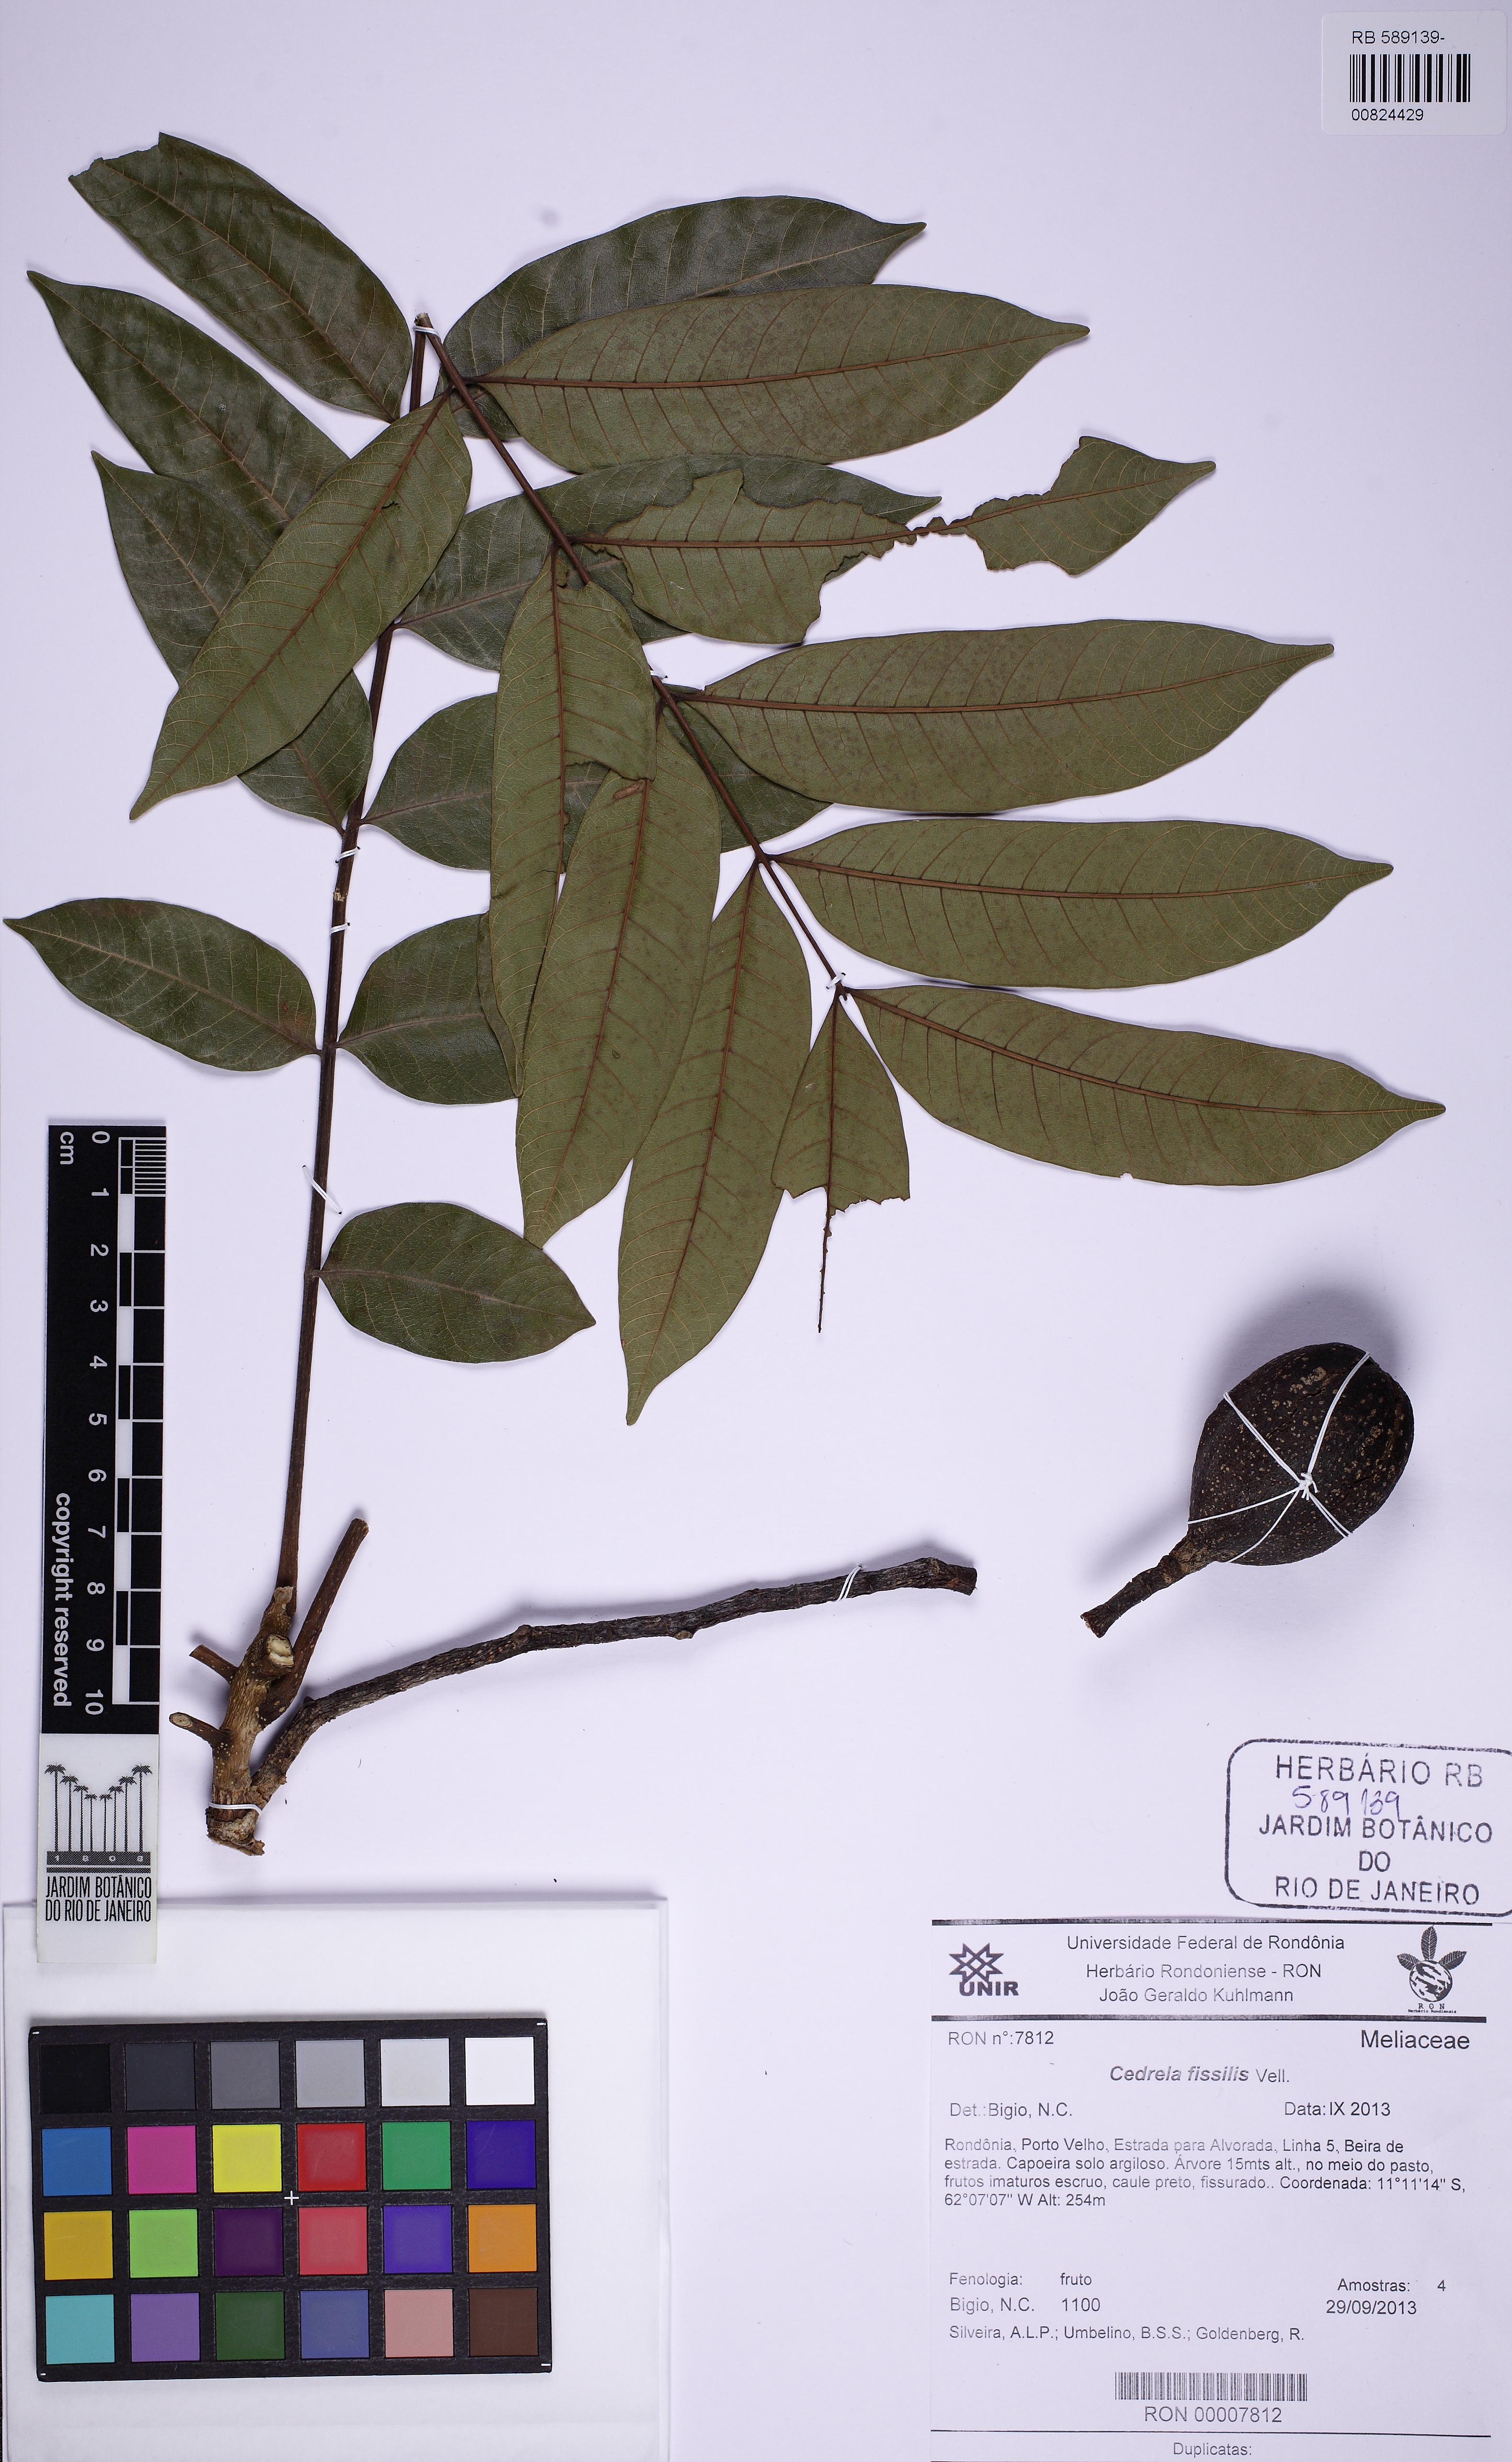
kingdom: Plantae
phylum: Tracheophyta
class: Magnoliopsida
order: Sapindales
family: Meliaceae
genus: Cedrela
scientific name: Cedrela fissilis
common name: Argentine cedar
